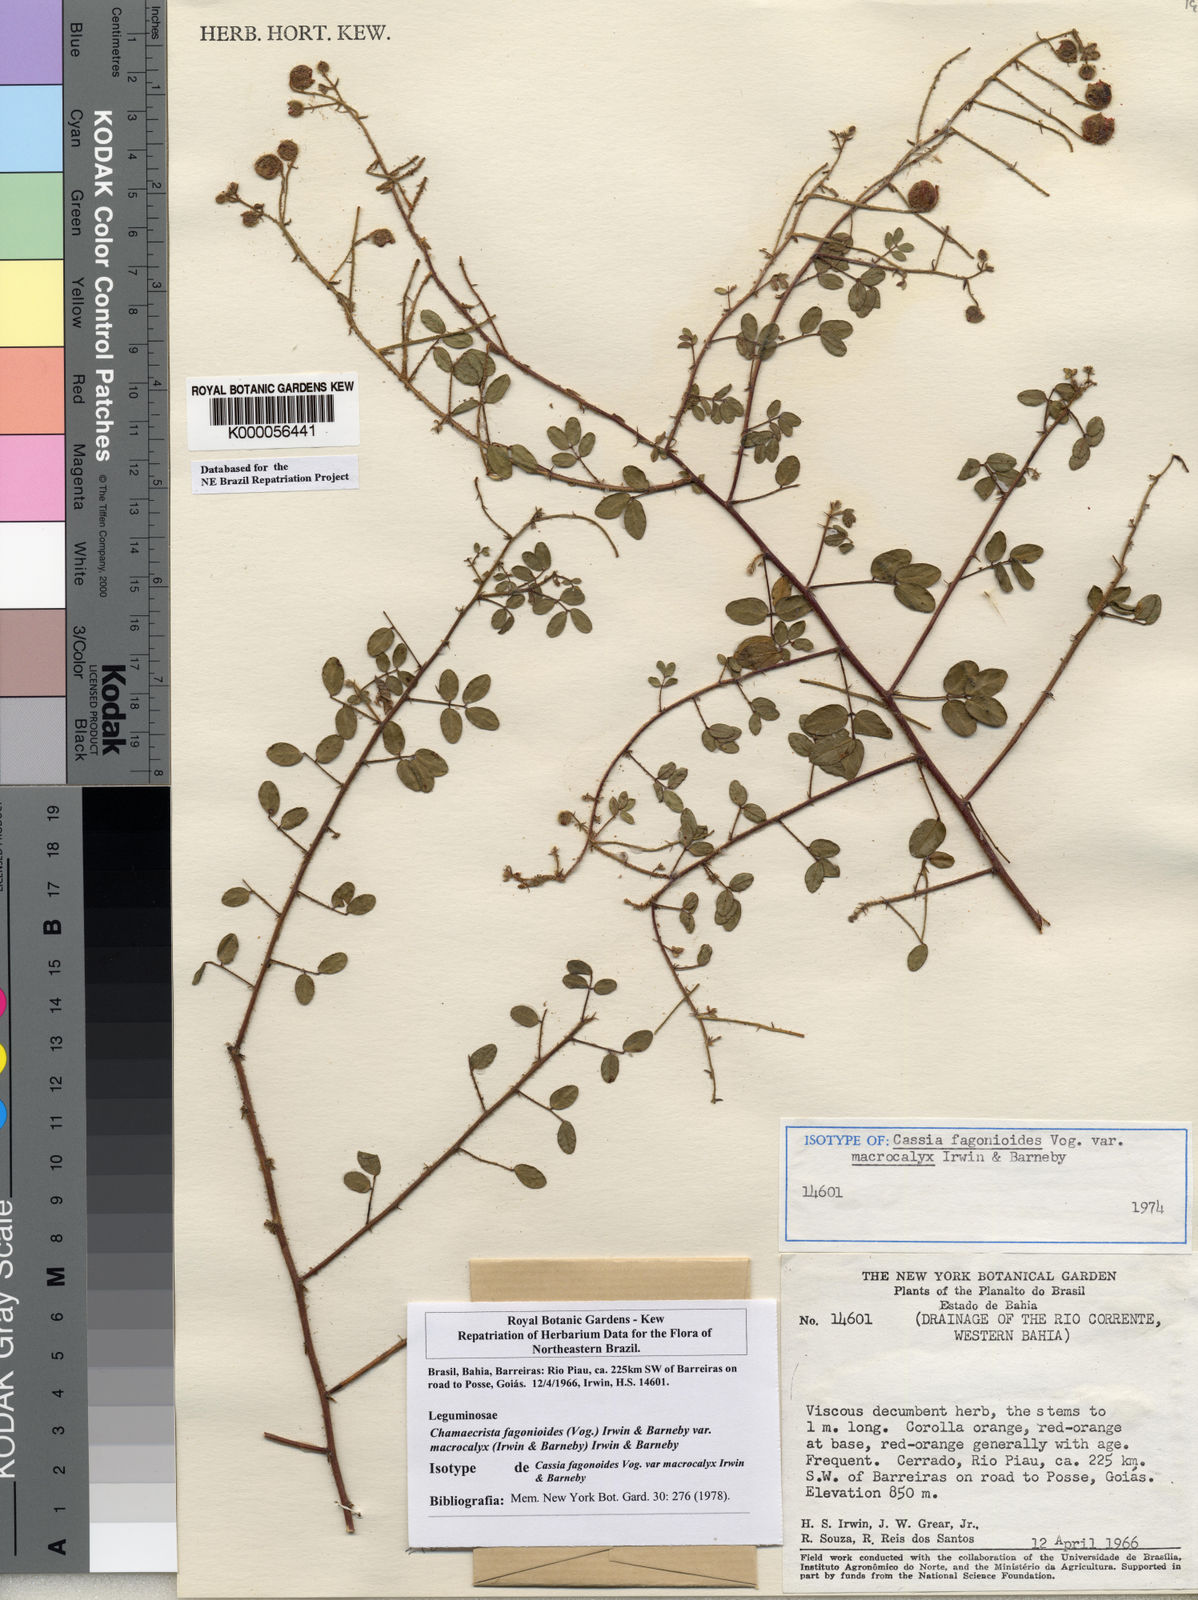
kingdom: Plantae
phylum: Tracheophyta
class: Magnoliopsida
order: Fabales
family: Fabaceae
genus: Chamaecrista
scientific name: Chamaecrista fagonioides
